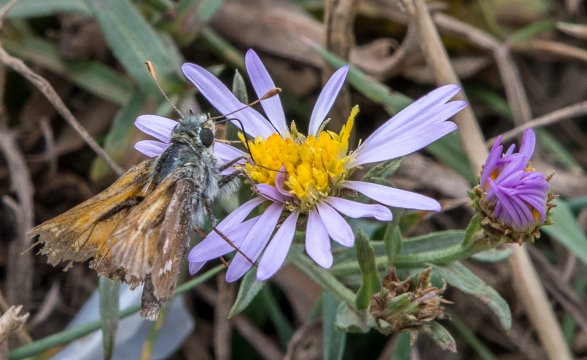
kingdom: Animalia
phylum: Arthropoda
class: Insecta
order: Lepidoptera
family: Hesperiidae
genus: Polites
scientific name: Polites sabuleti
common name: Draco Skipper
